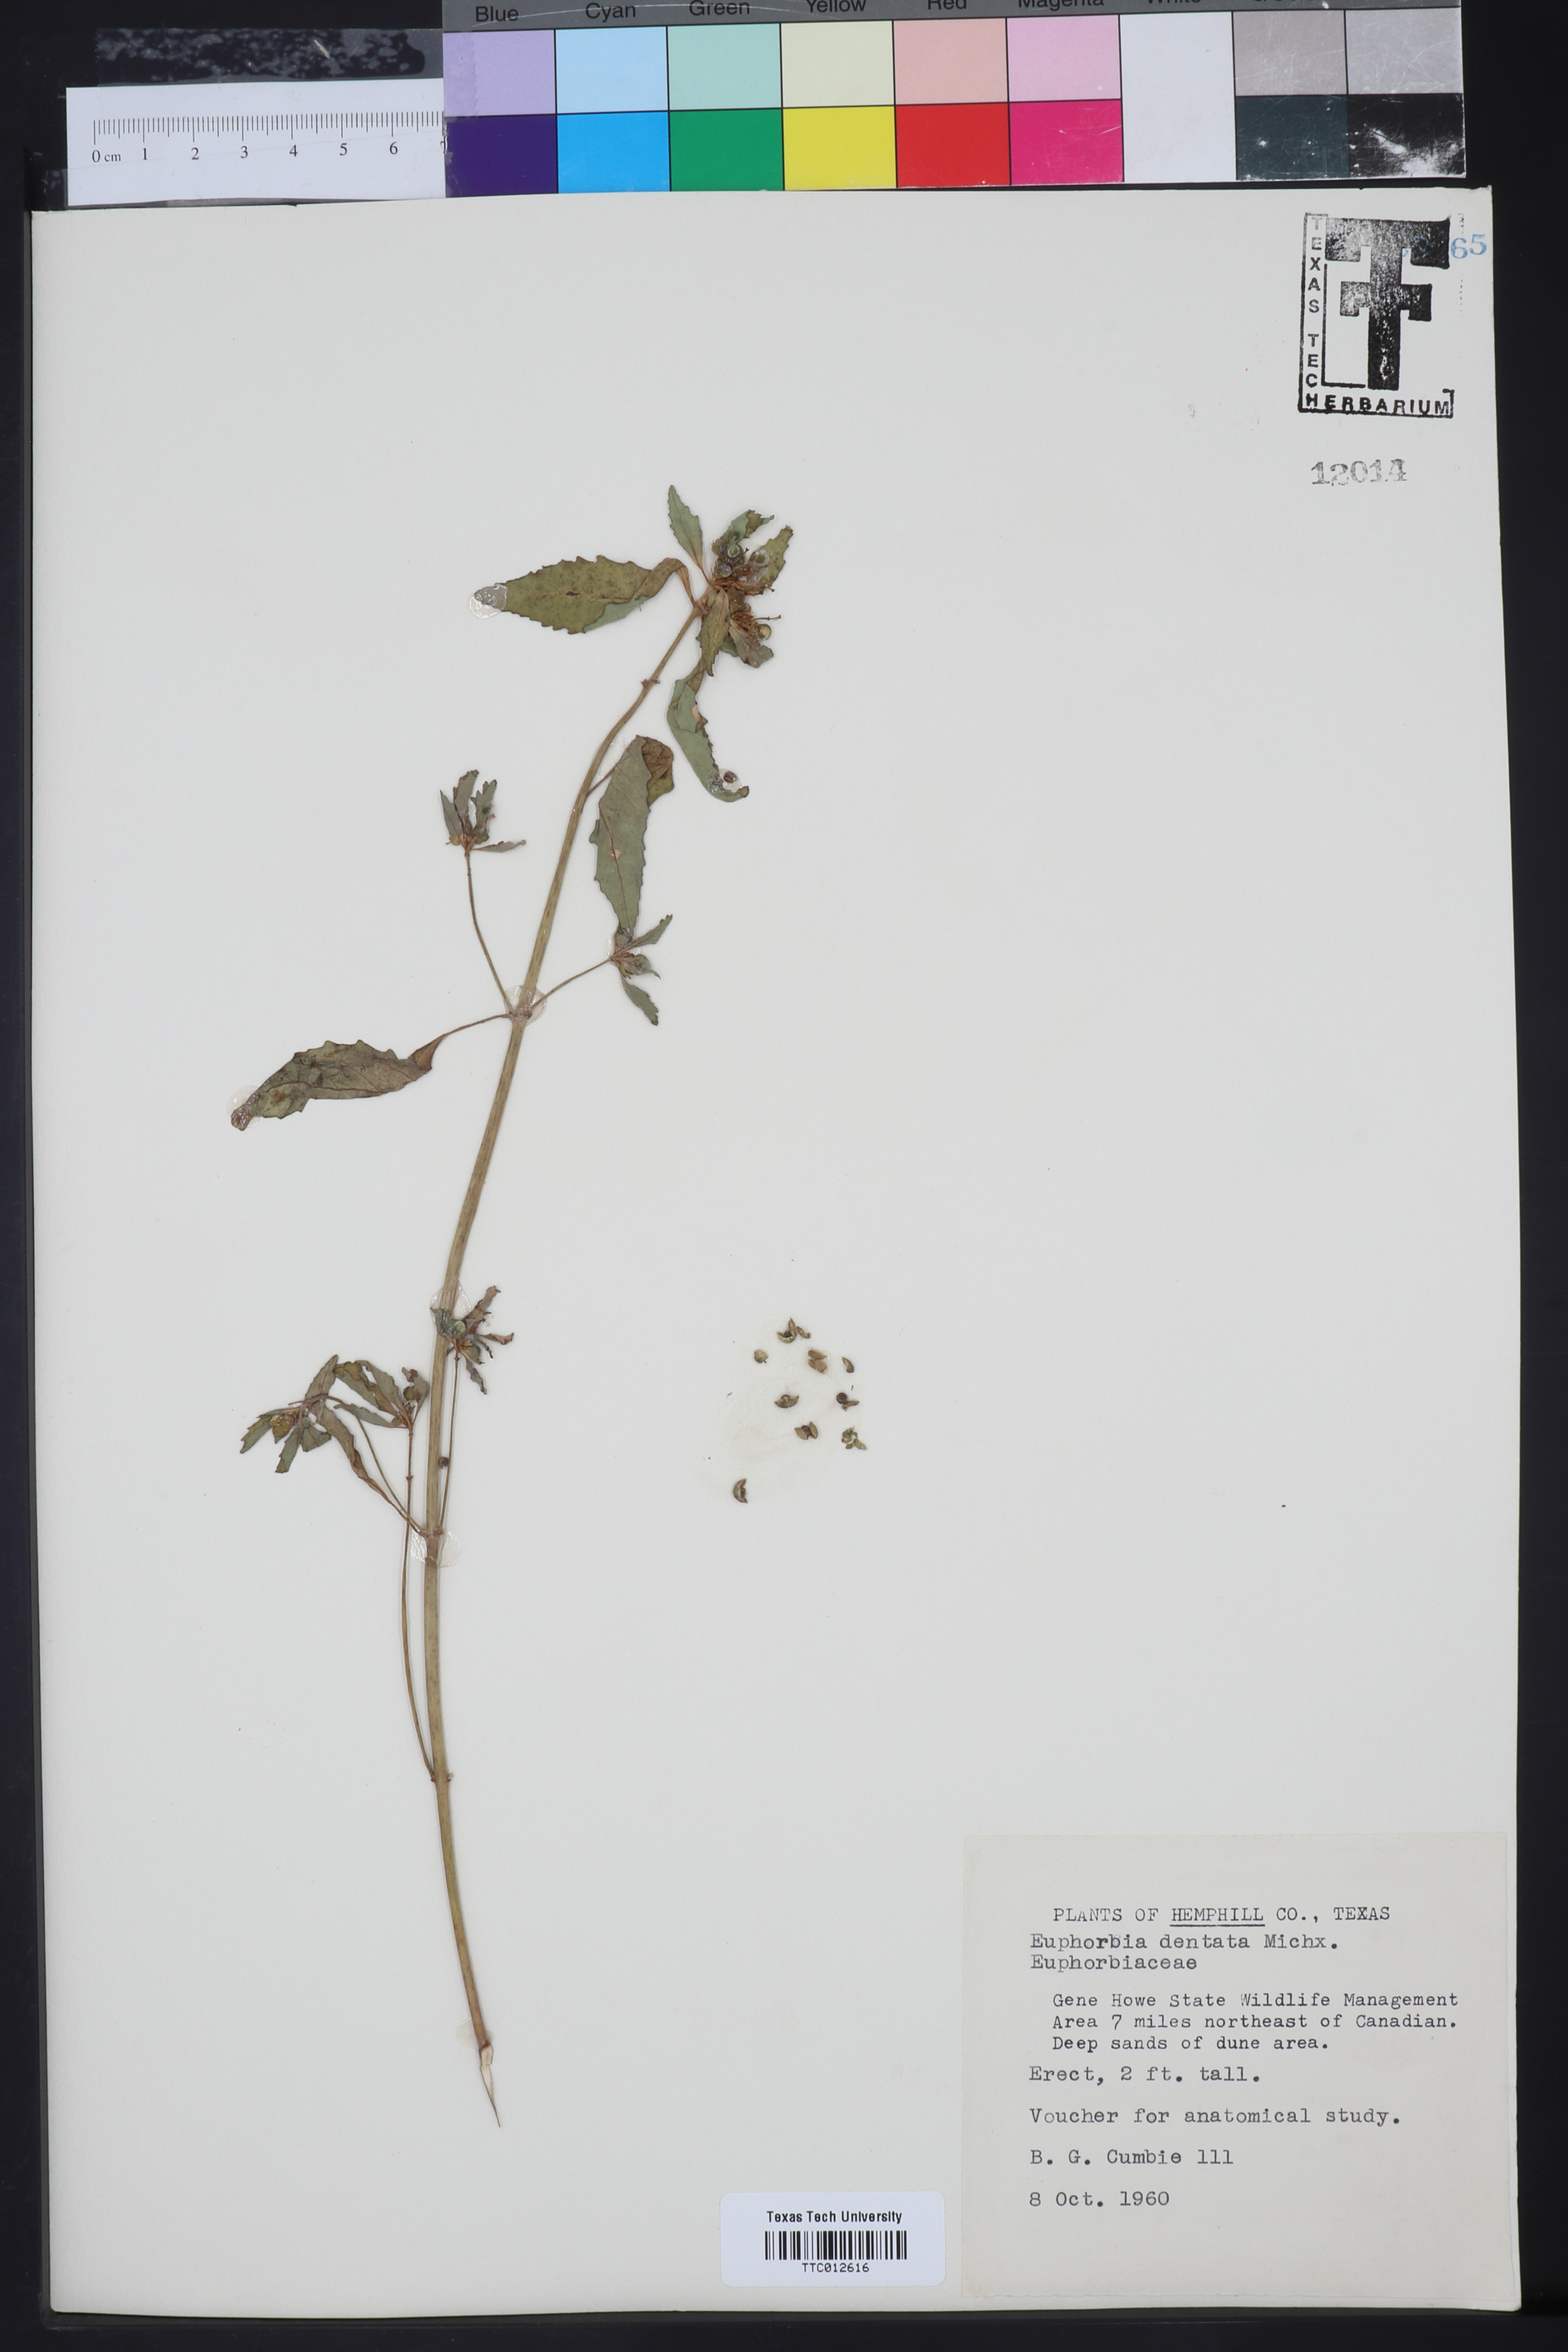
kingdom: Plantae
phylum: Tracheophyta
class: Magnoliopsida
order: Malpighiales
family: Euphorbiaceae
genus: Euphorbia
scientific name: Euphorbia dentata
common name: Dentate spurge
